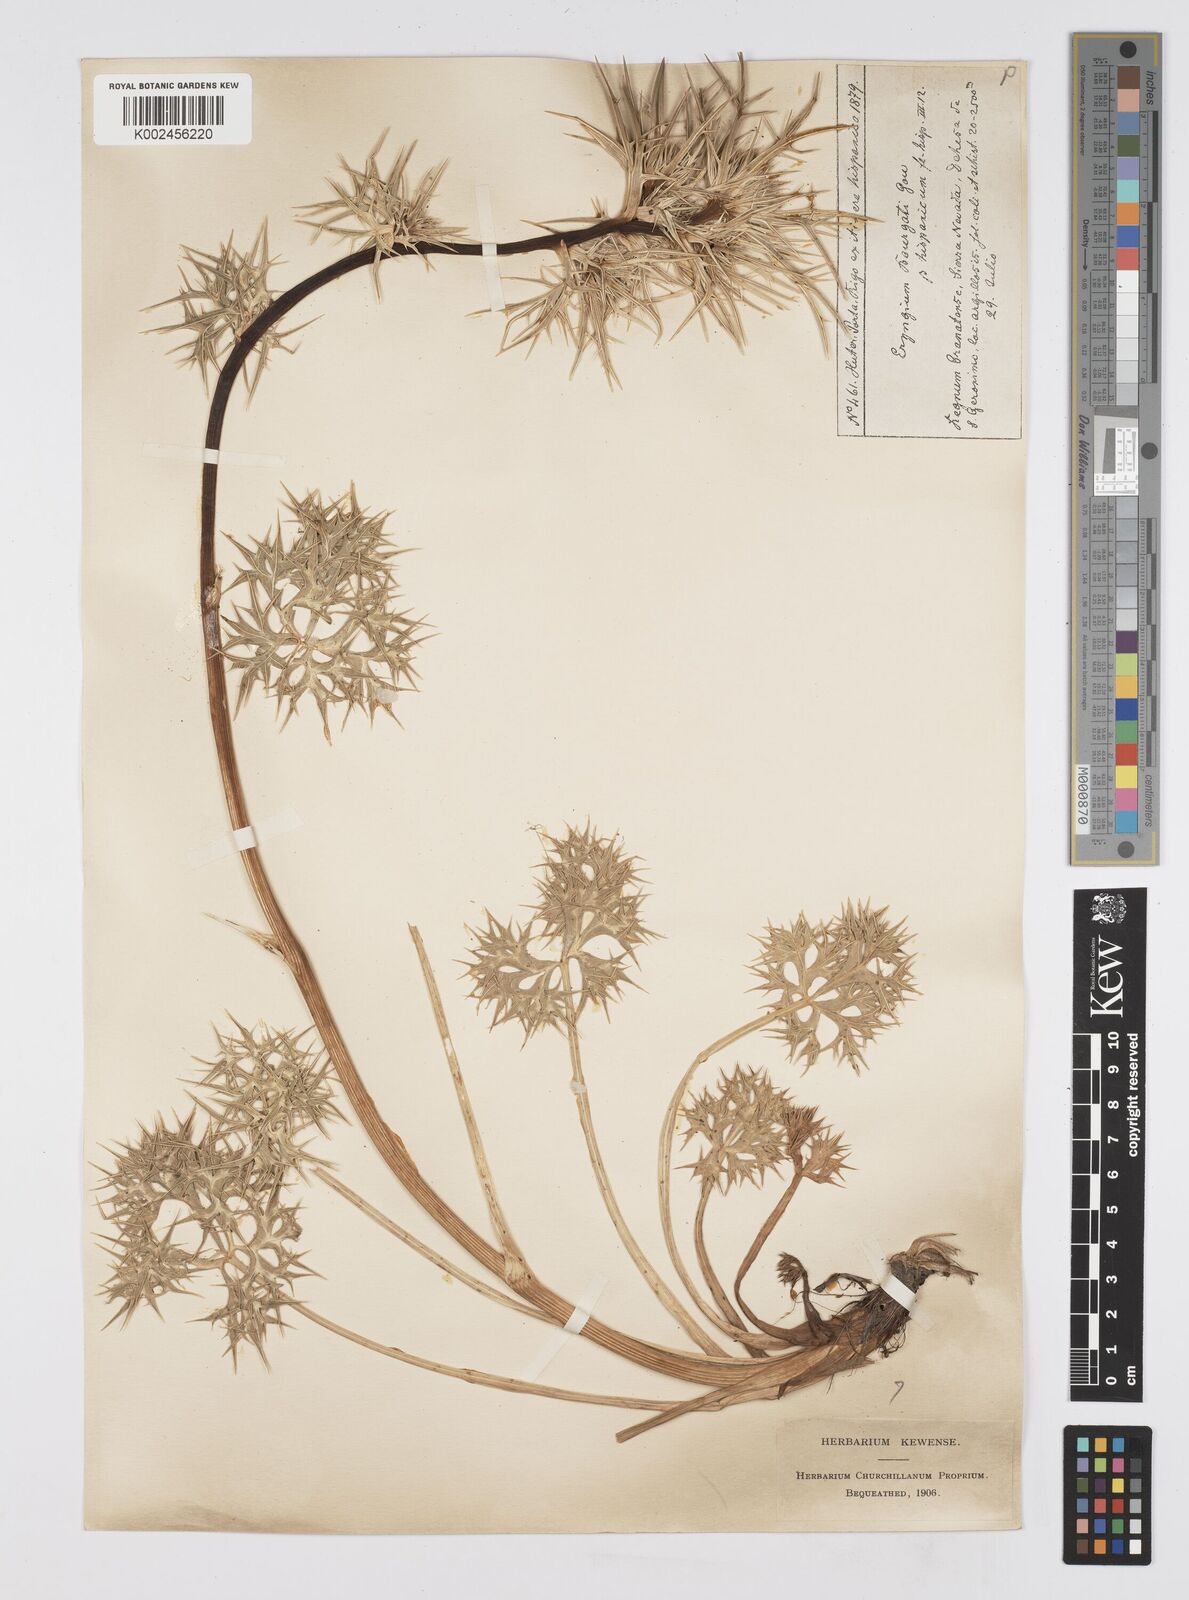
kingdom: Plantae
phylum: Tracheophyta
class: Magnoliopsida
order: Apiales
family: Apiaceae
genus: Eryngium
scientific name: Eryngium bourgatii
